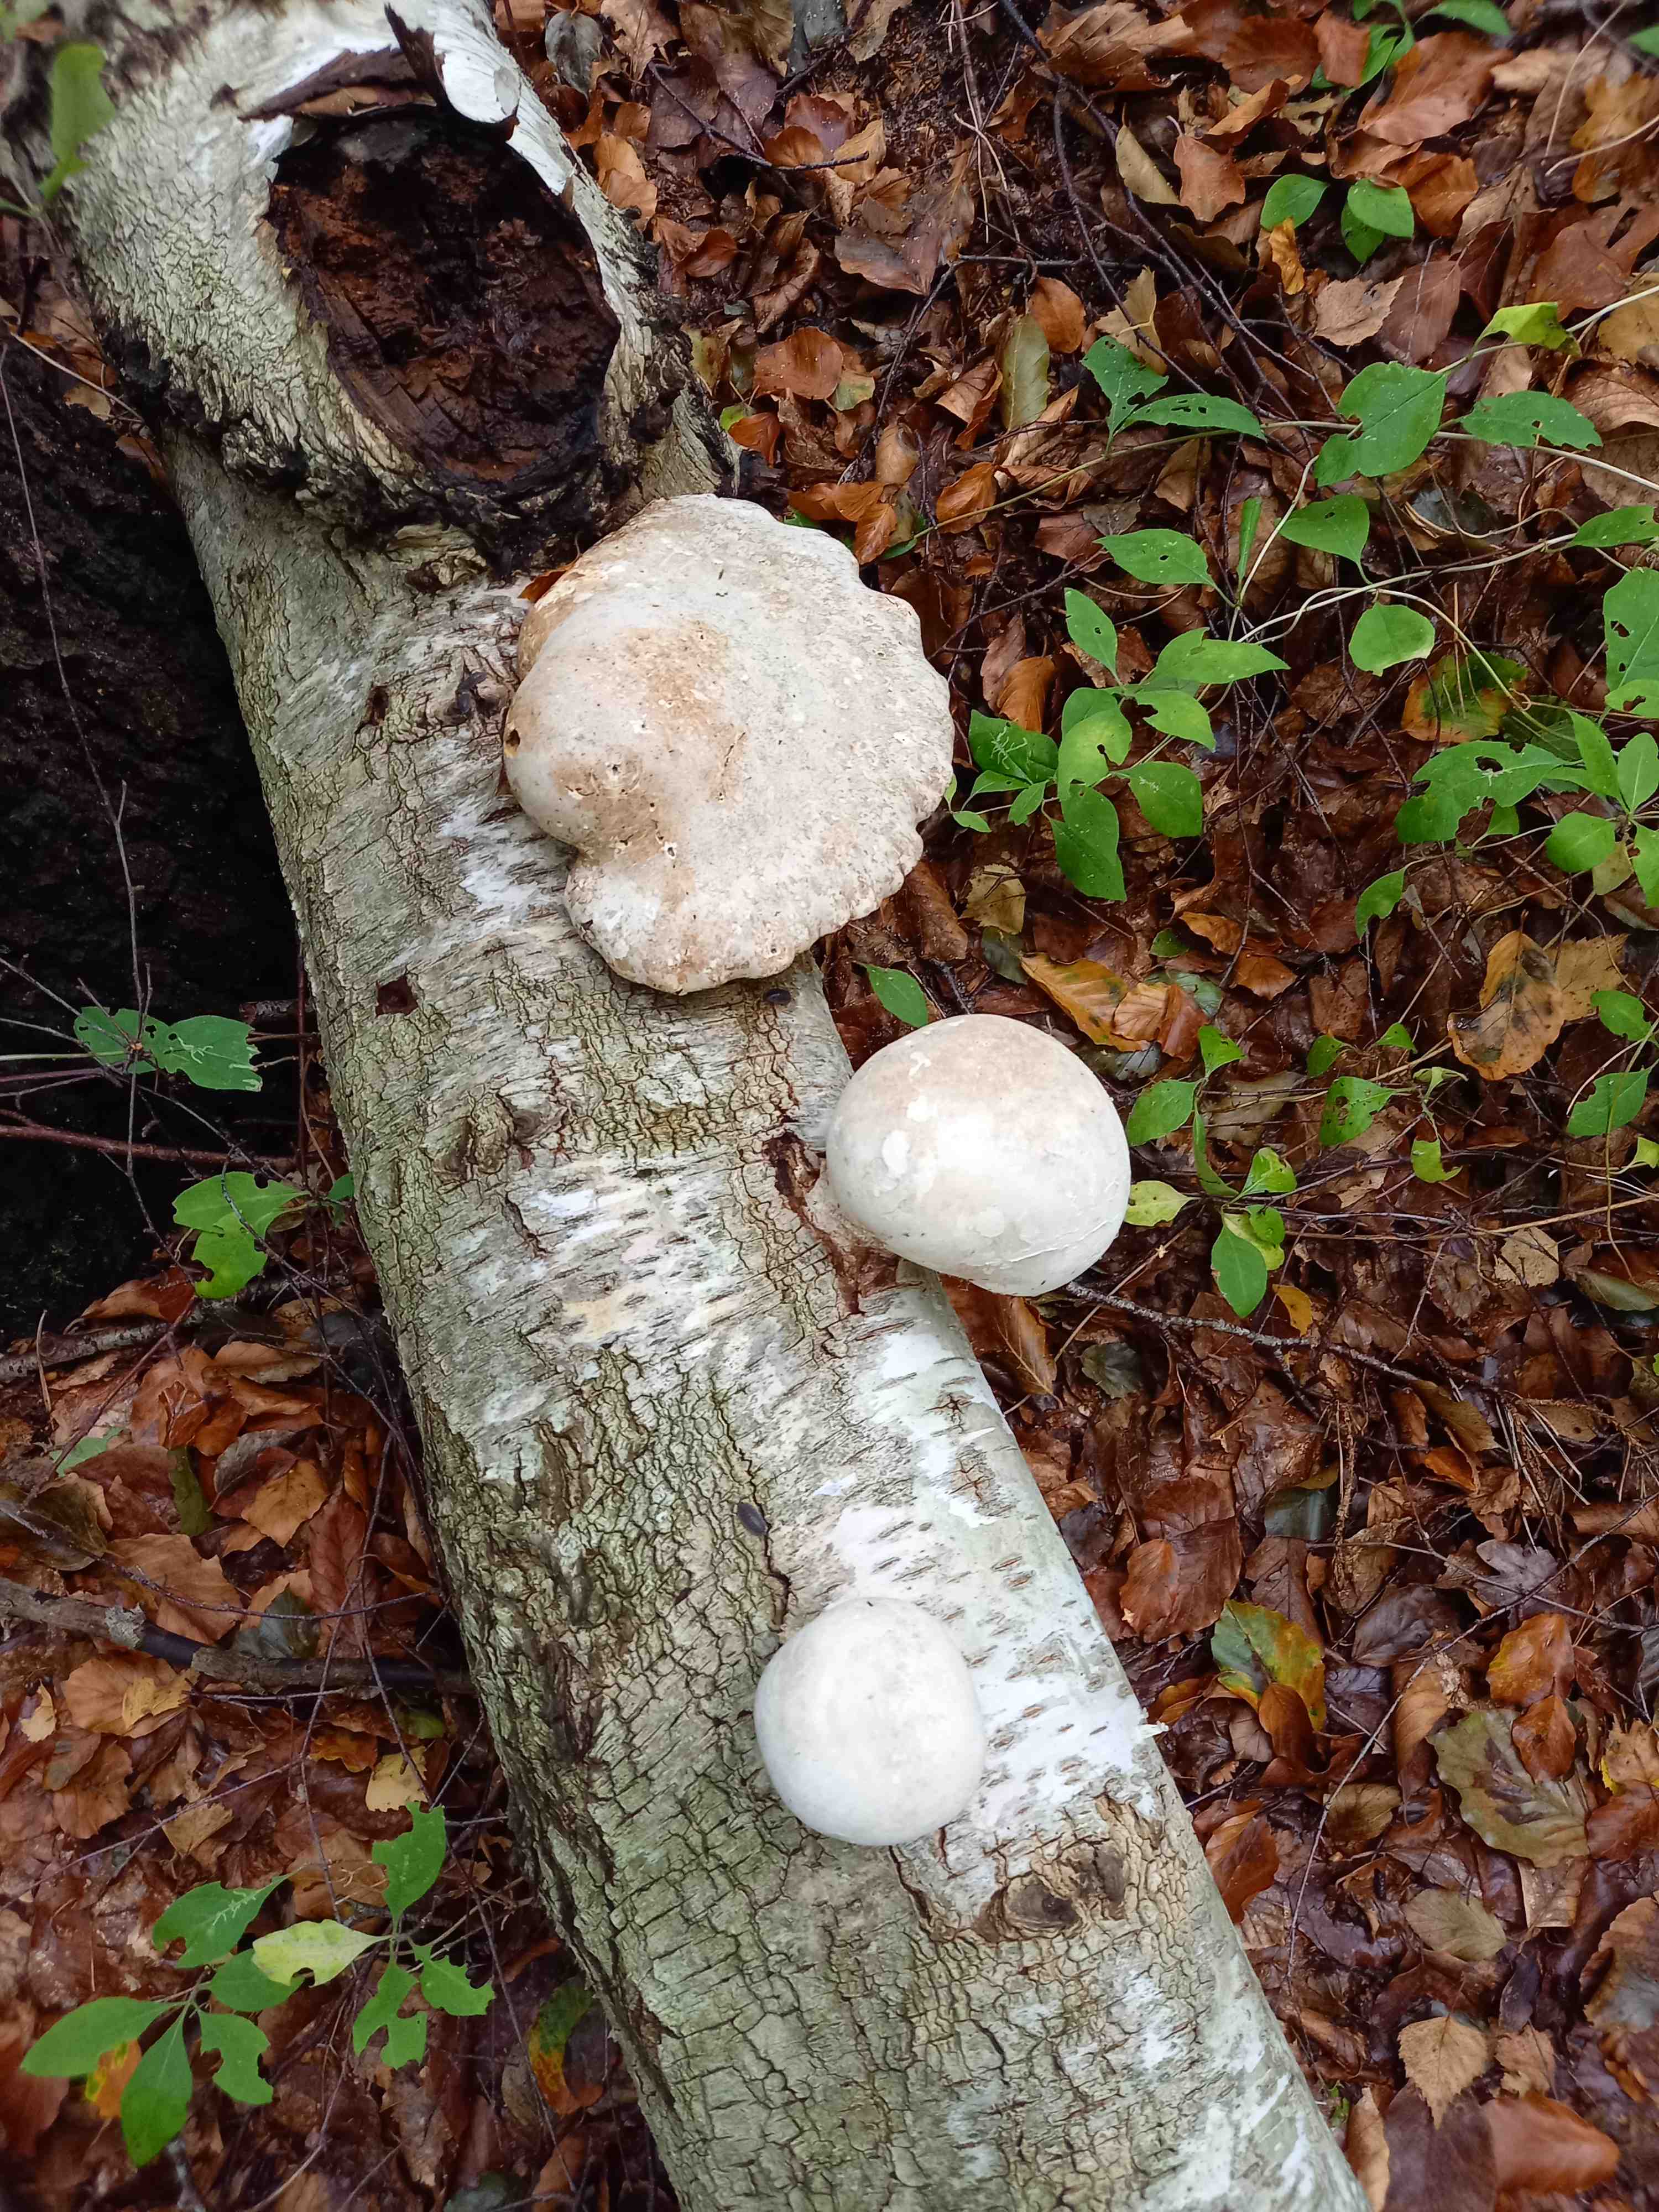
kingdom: Fungi
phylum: Basidiomycota
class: Agaricomycetes
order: Polyporales
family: Fomitopsidaceae
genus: Fomitopsis
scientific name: Fomitopsis betulina
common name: birkeporesvamp
